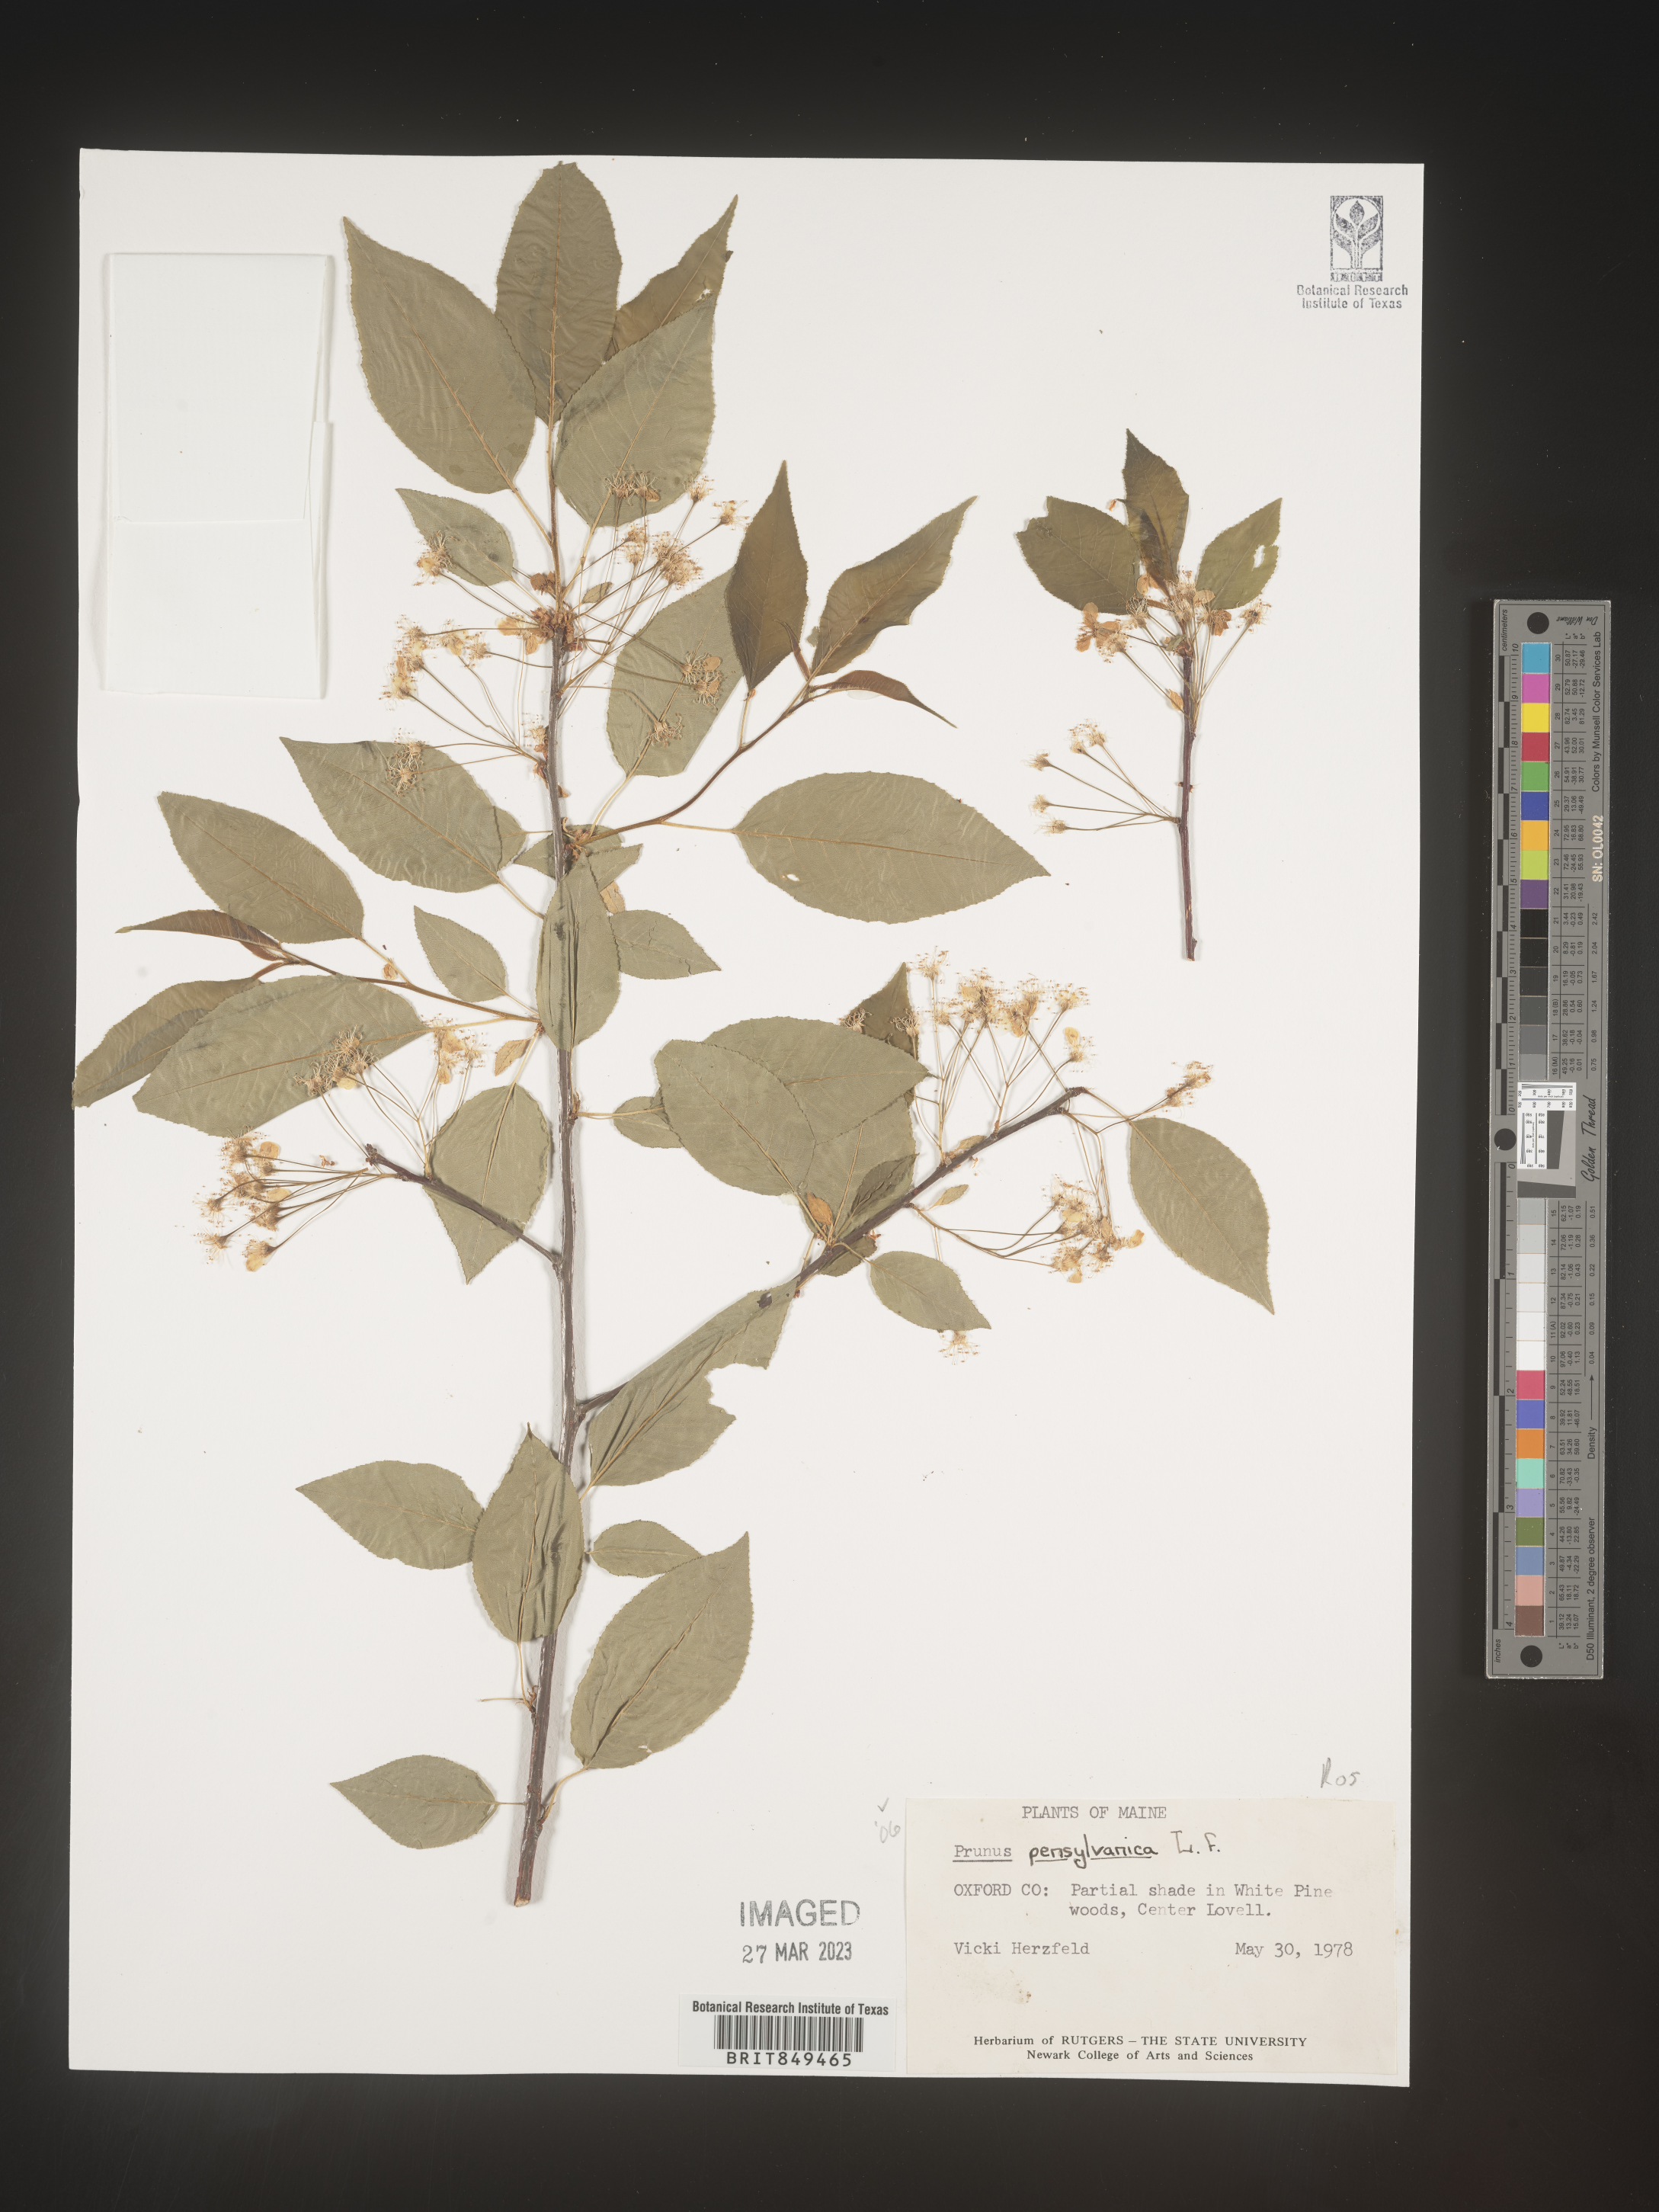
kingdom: Plantae
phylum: Tracheophyta
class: Magnoliopsida
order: Rosales
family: Rosaceae
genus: Prunus
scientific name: Prunus pensylvanica
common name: Pin cherry
